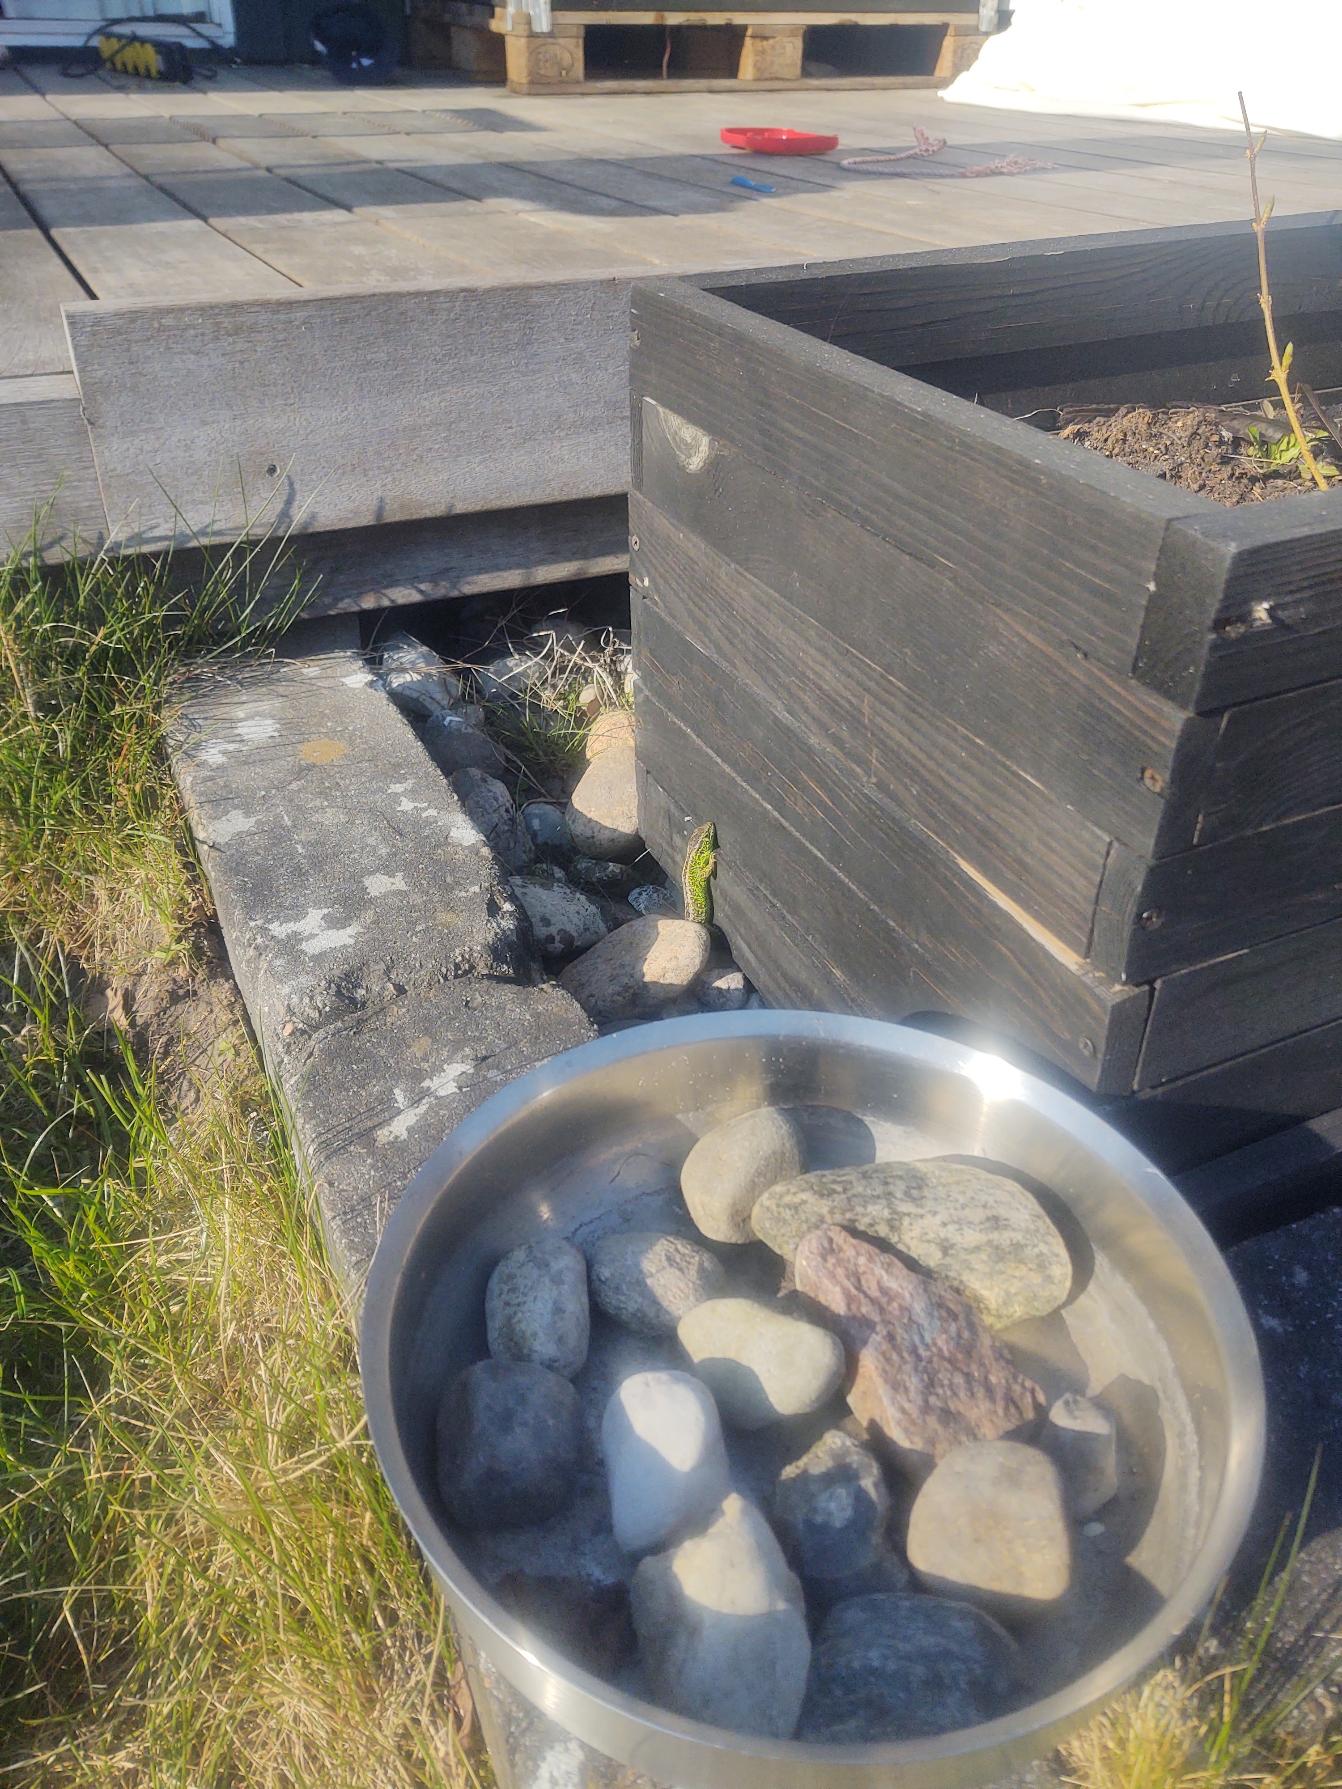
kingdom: Animalia
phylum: Chordata
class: Squamata
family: Lacertidae
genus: Lacerta
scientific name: Lacerta agilis
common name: Markfirben
